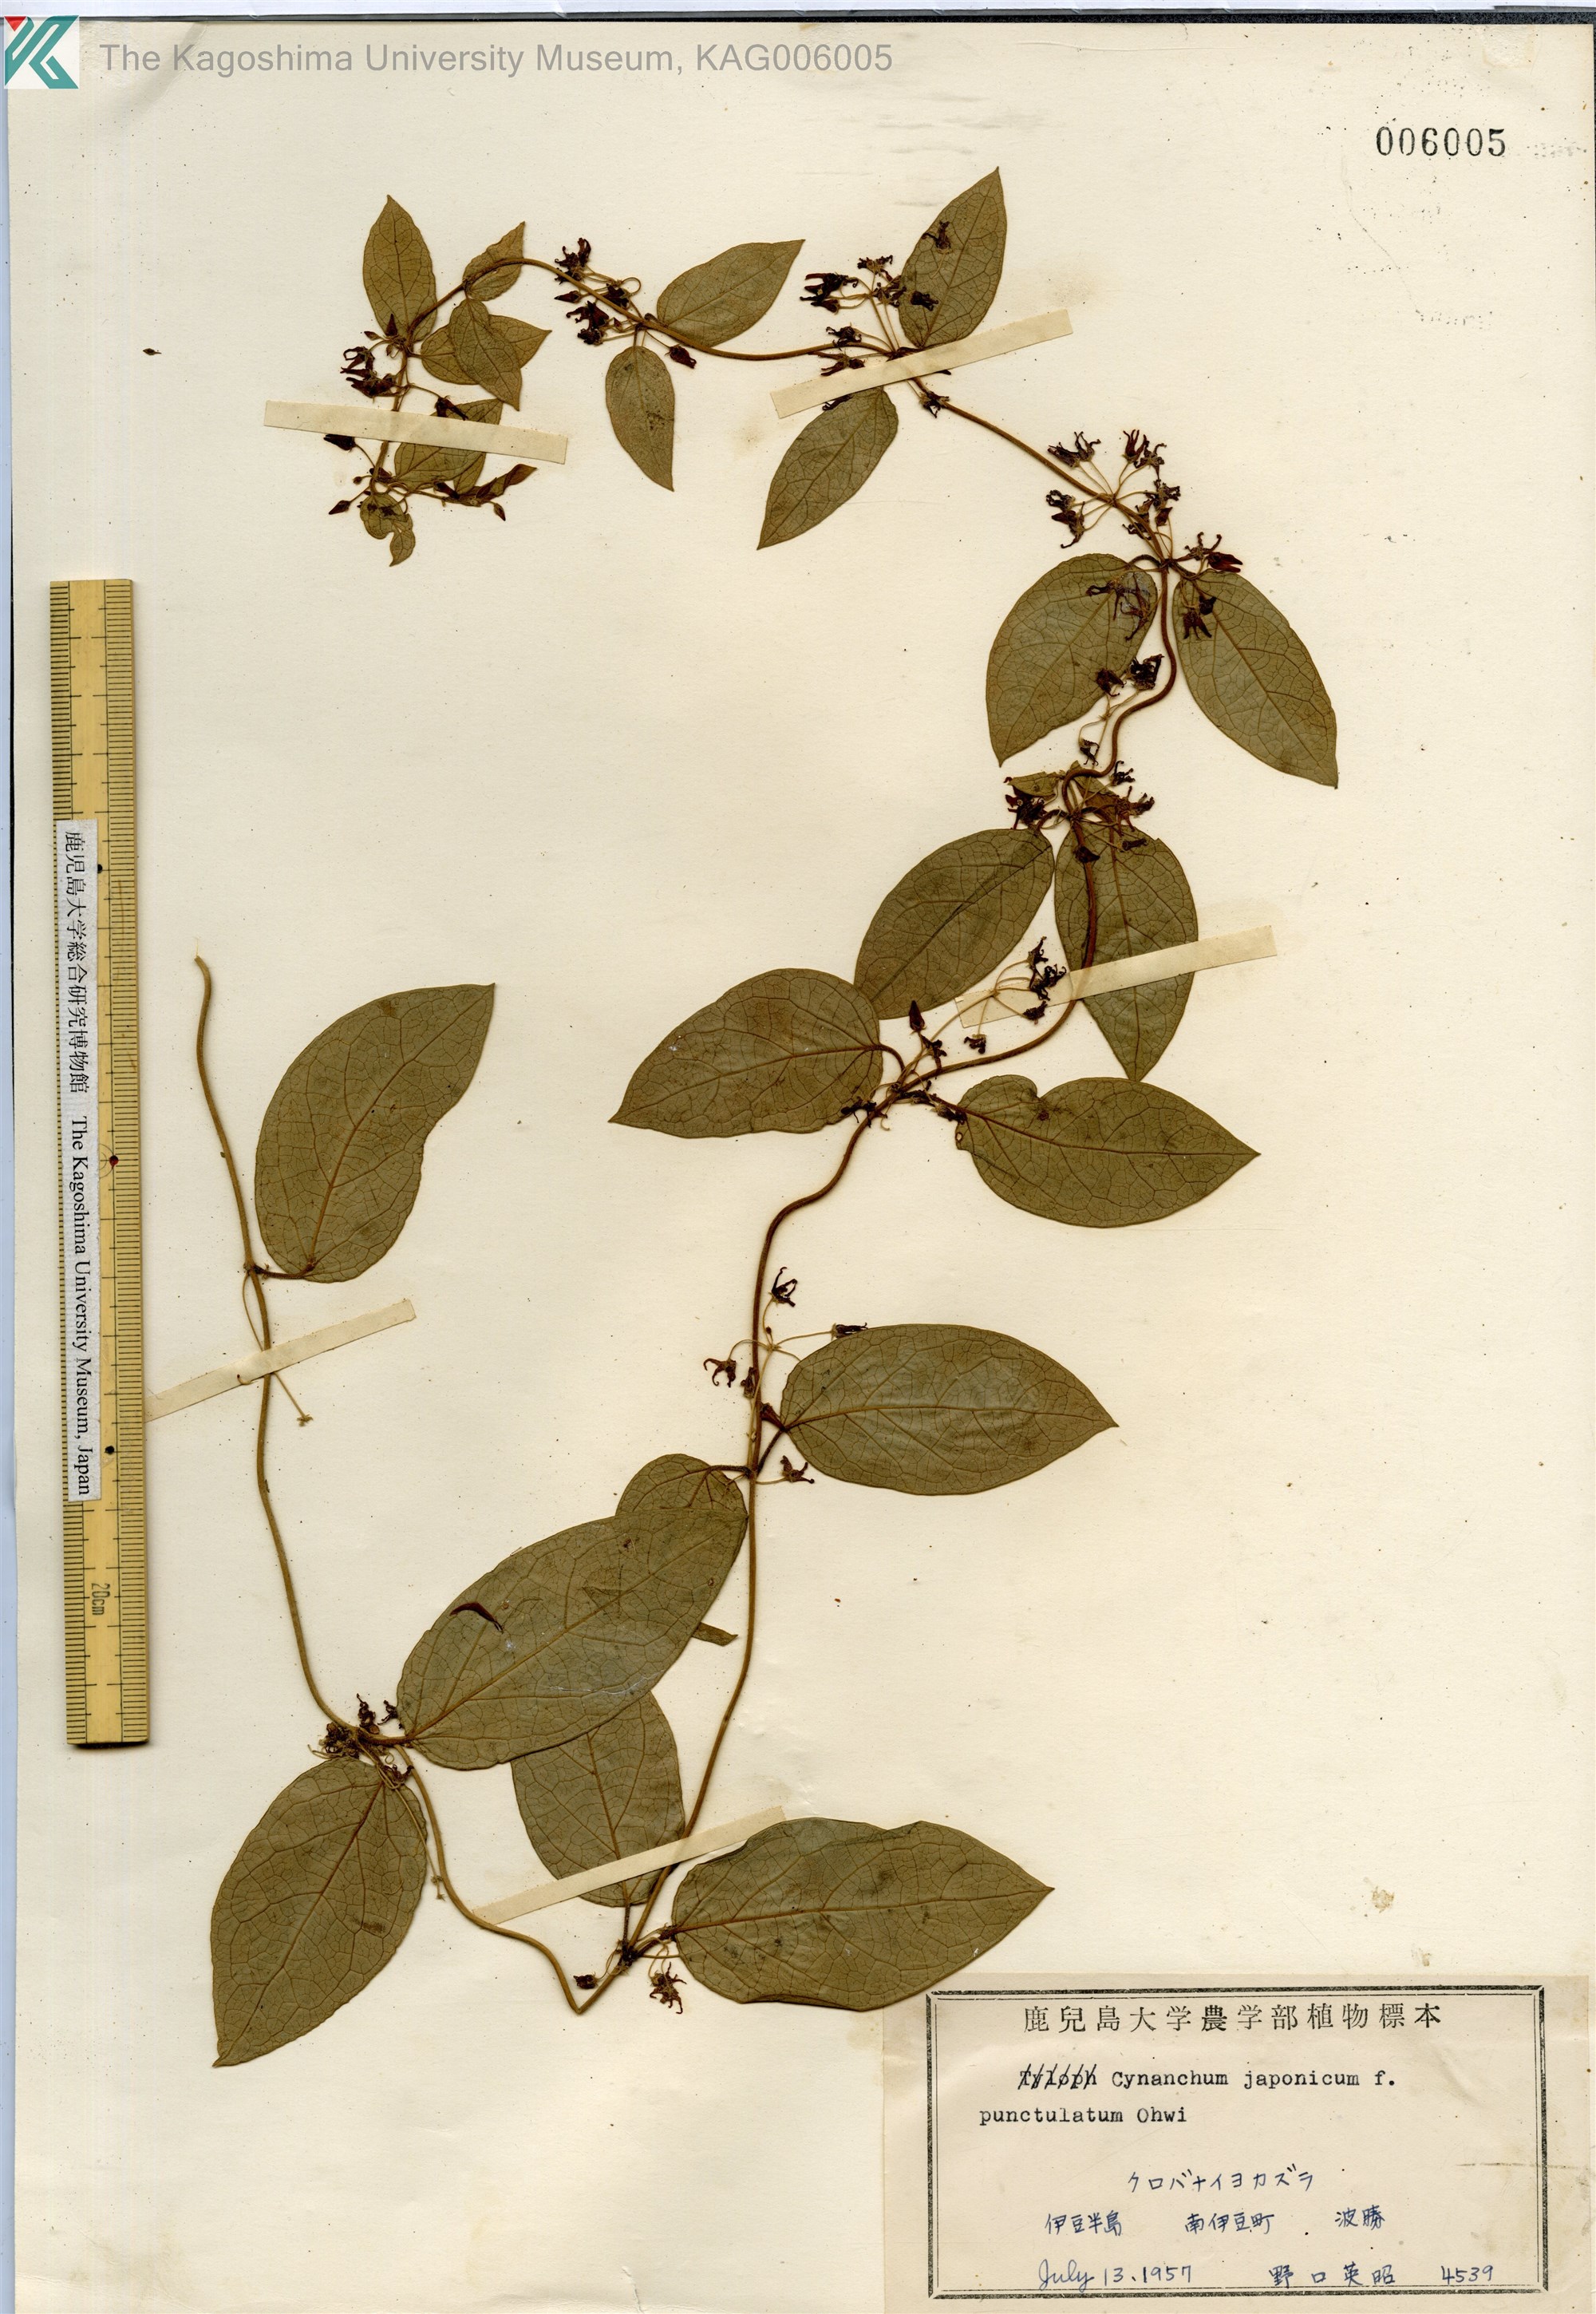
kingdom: Plantae
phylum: Tracheophyta
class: Magnoliopsida
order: Gentianales
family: Apocynaceae
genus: Vincetoxicum
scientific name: Vincetoxicum japonicum
